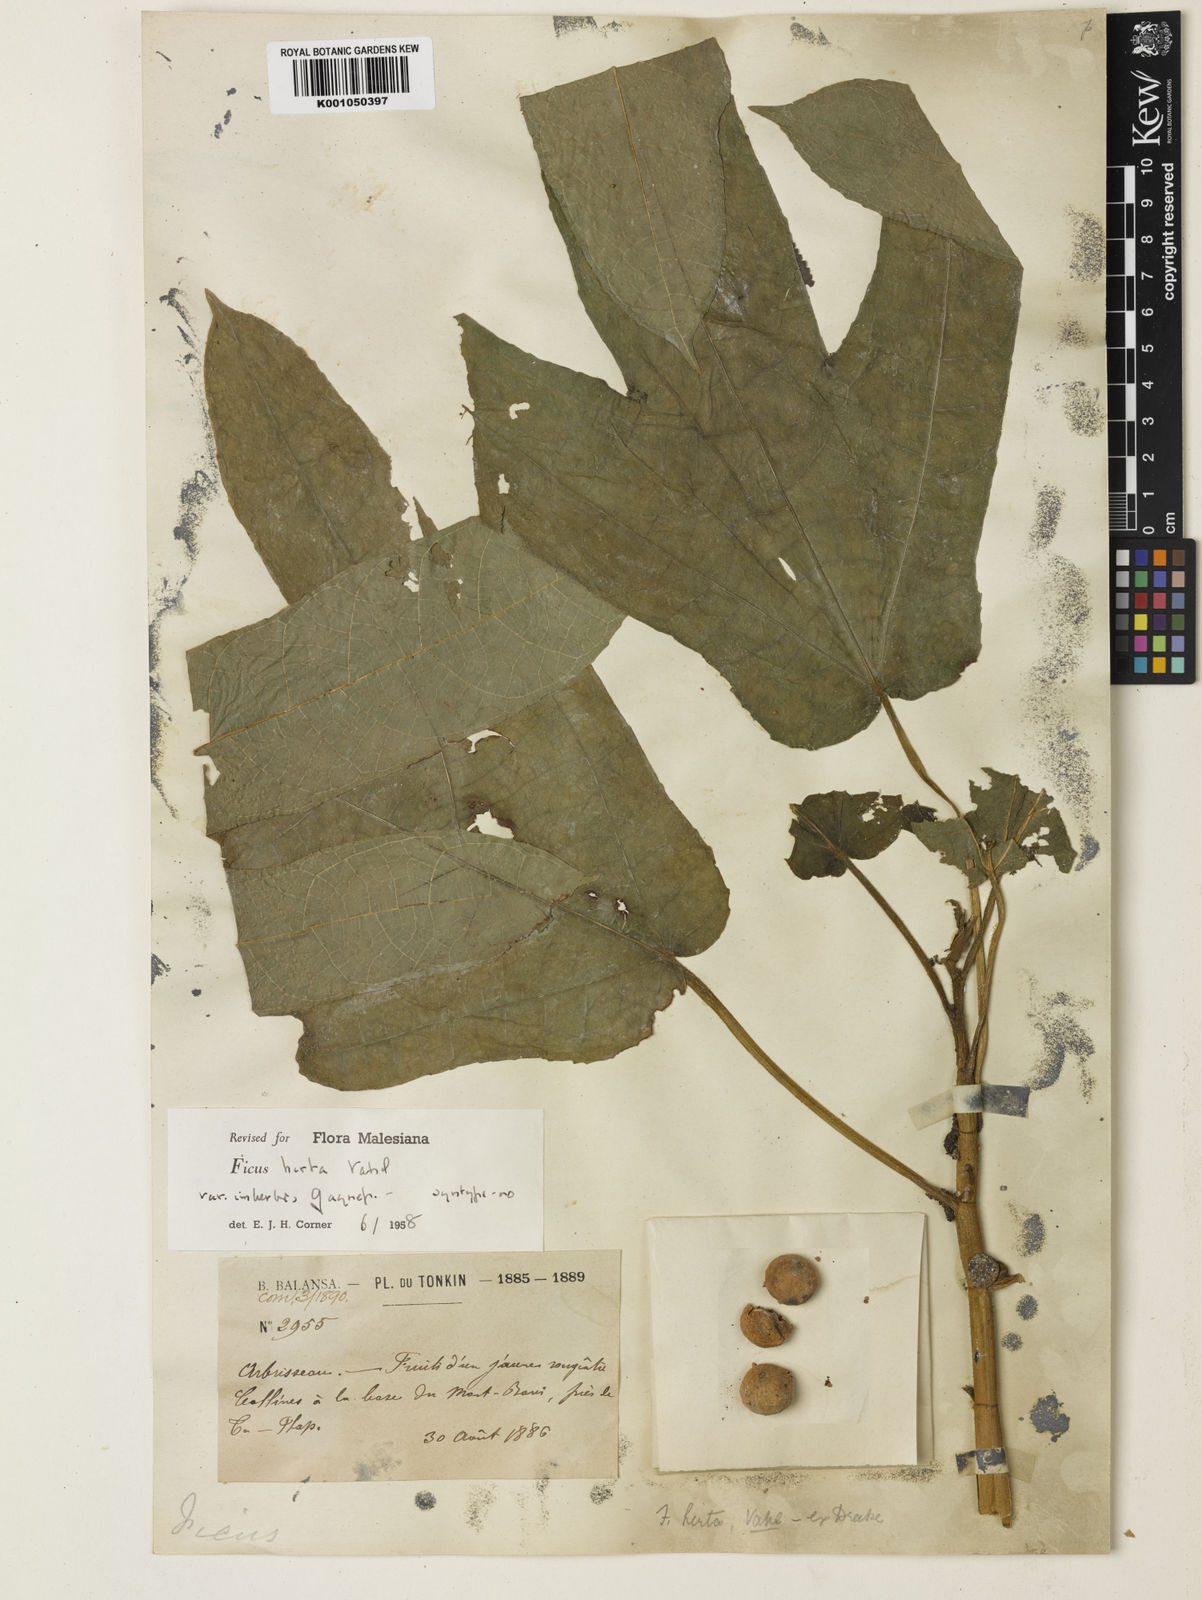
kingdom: Plantae
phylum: Tracheophyta
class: Magnoliopsida
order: Rosales
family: Moraceae
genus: Ficus
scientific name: Ficus simplicissima
